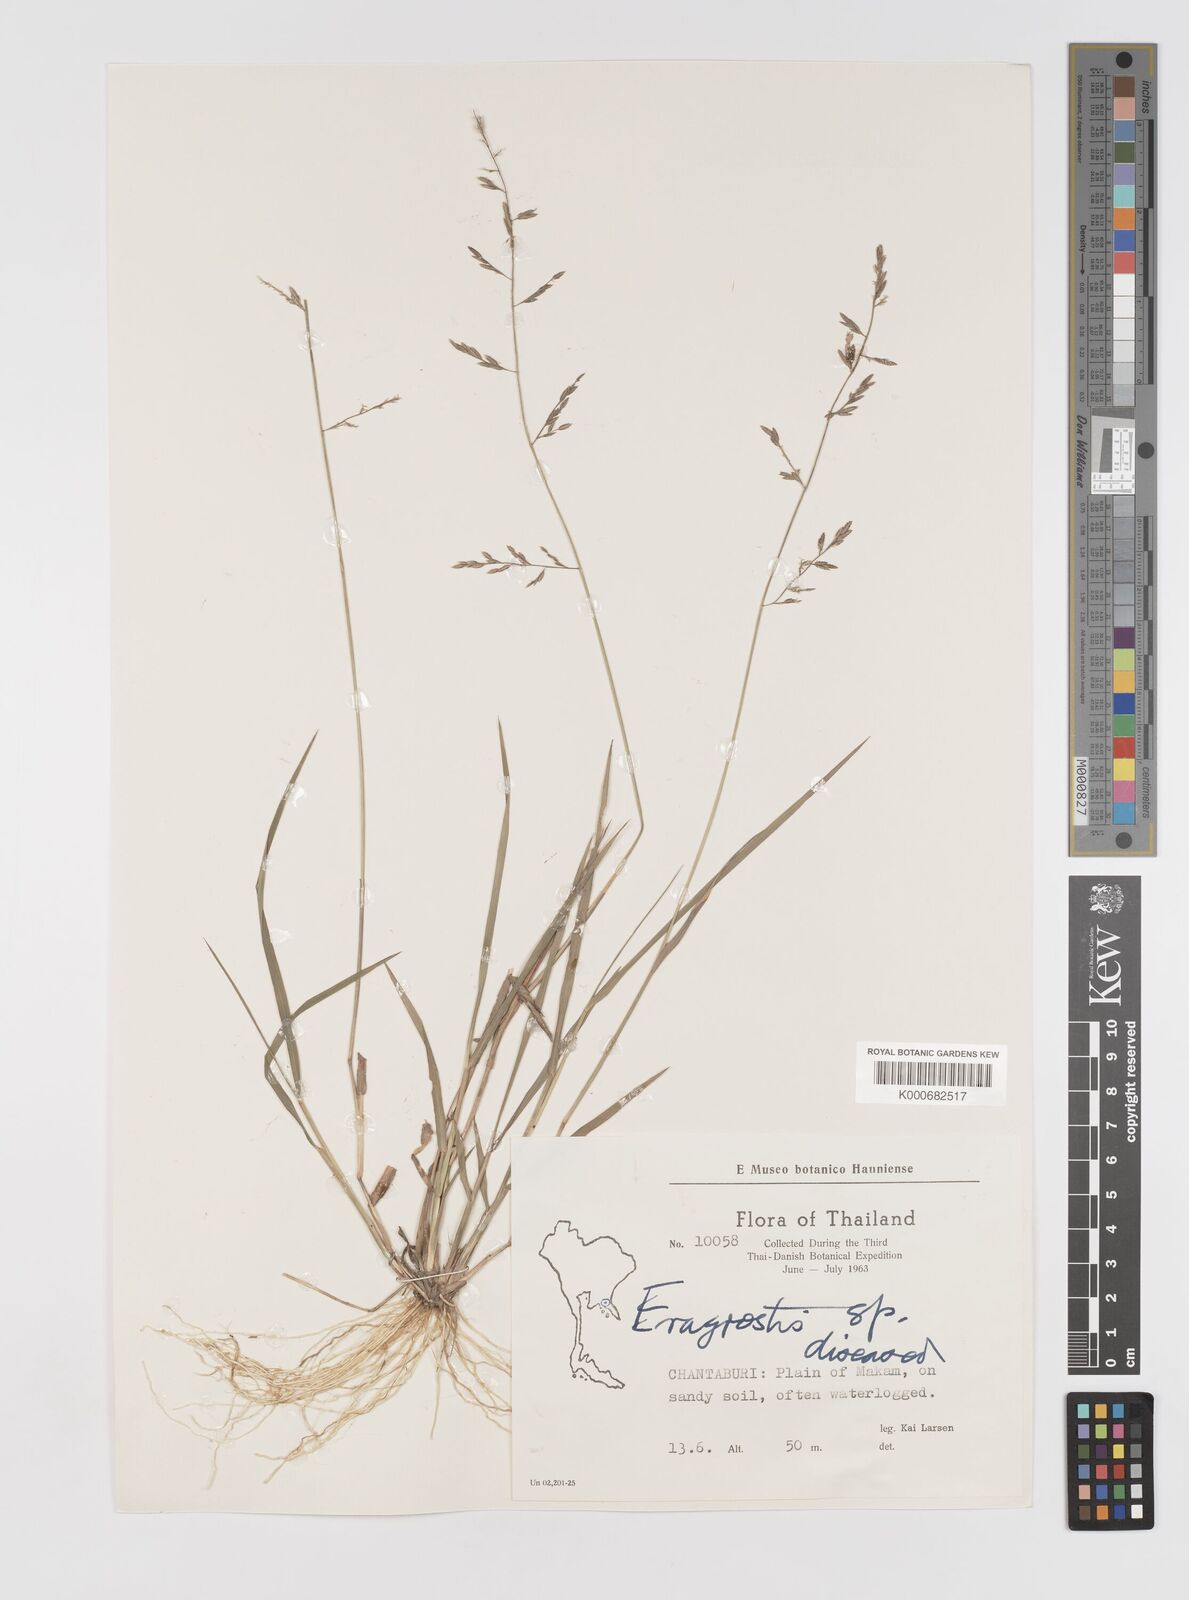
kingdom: Plantae
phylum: Tracheophyta
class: Liliopsida
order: Poales
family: Poaceae
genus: Eragrostis
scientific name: Eragrostis brownii
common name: Lovegrass
